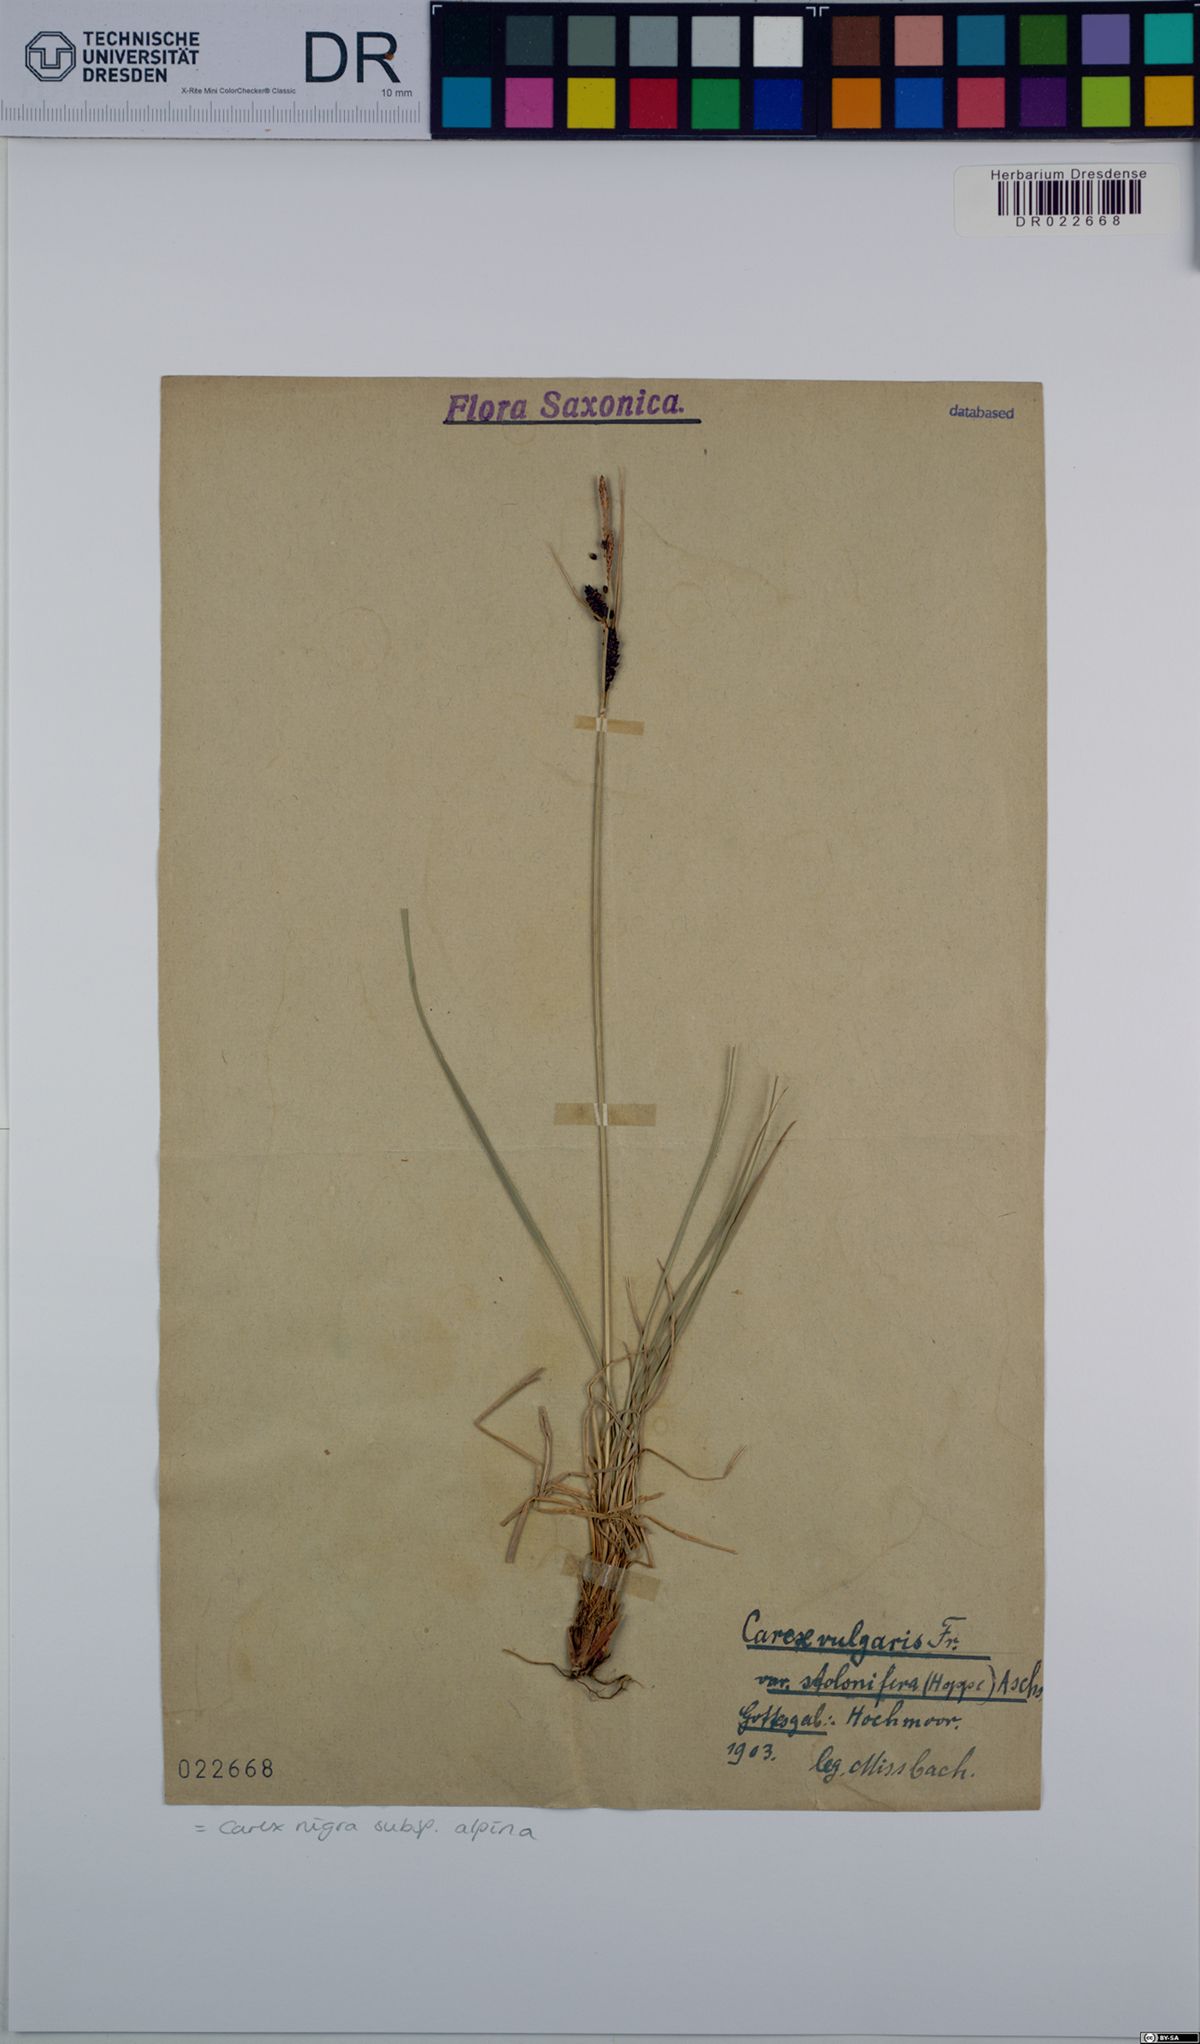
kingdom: Plantae
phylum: Tracheophyta
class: Liliopsida
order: Poales
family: Cyperaceae
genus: Carex
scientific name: Carex nigra
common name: Common sedge
